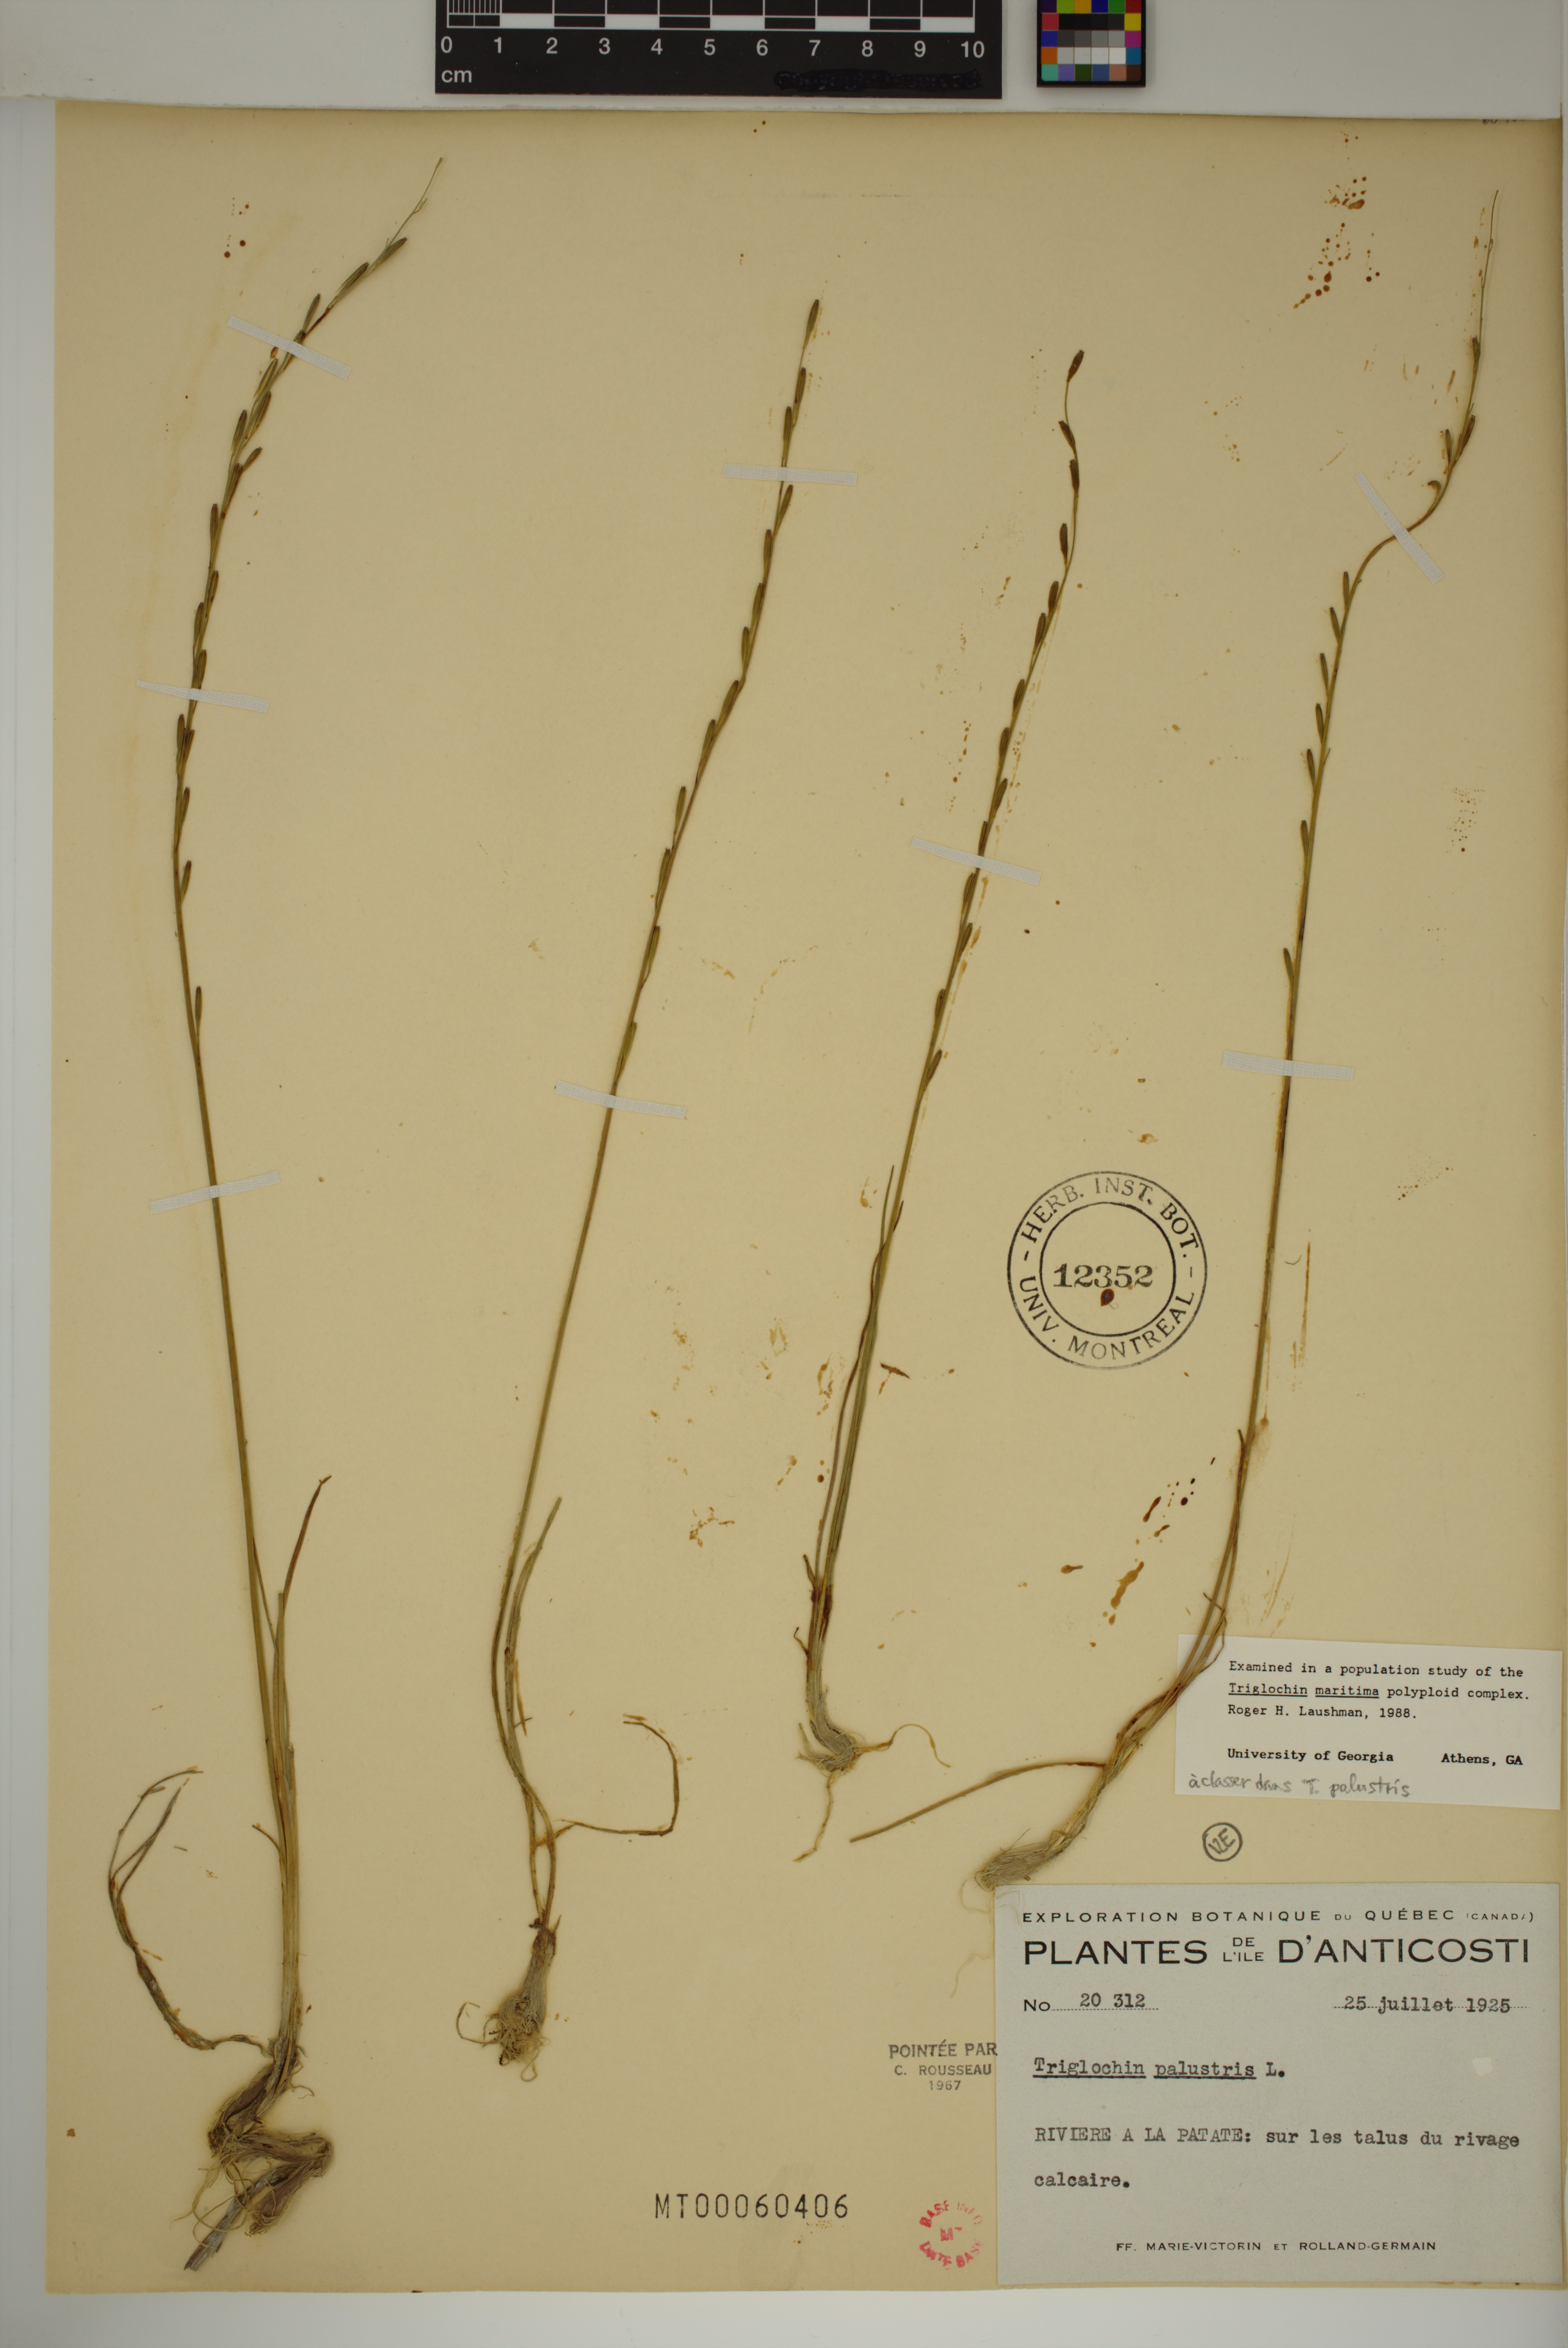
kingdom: Plantae
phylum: Tracheophyta
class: Liliopsida
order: Alismatales
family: Juncaginaceae
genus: Triglochin
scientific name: Triglochin palustris
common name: Marsh arrowgrass
